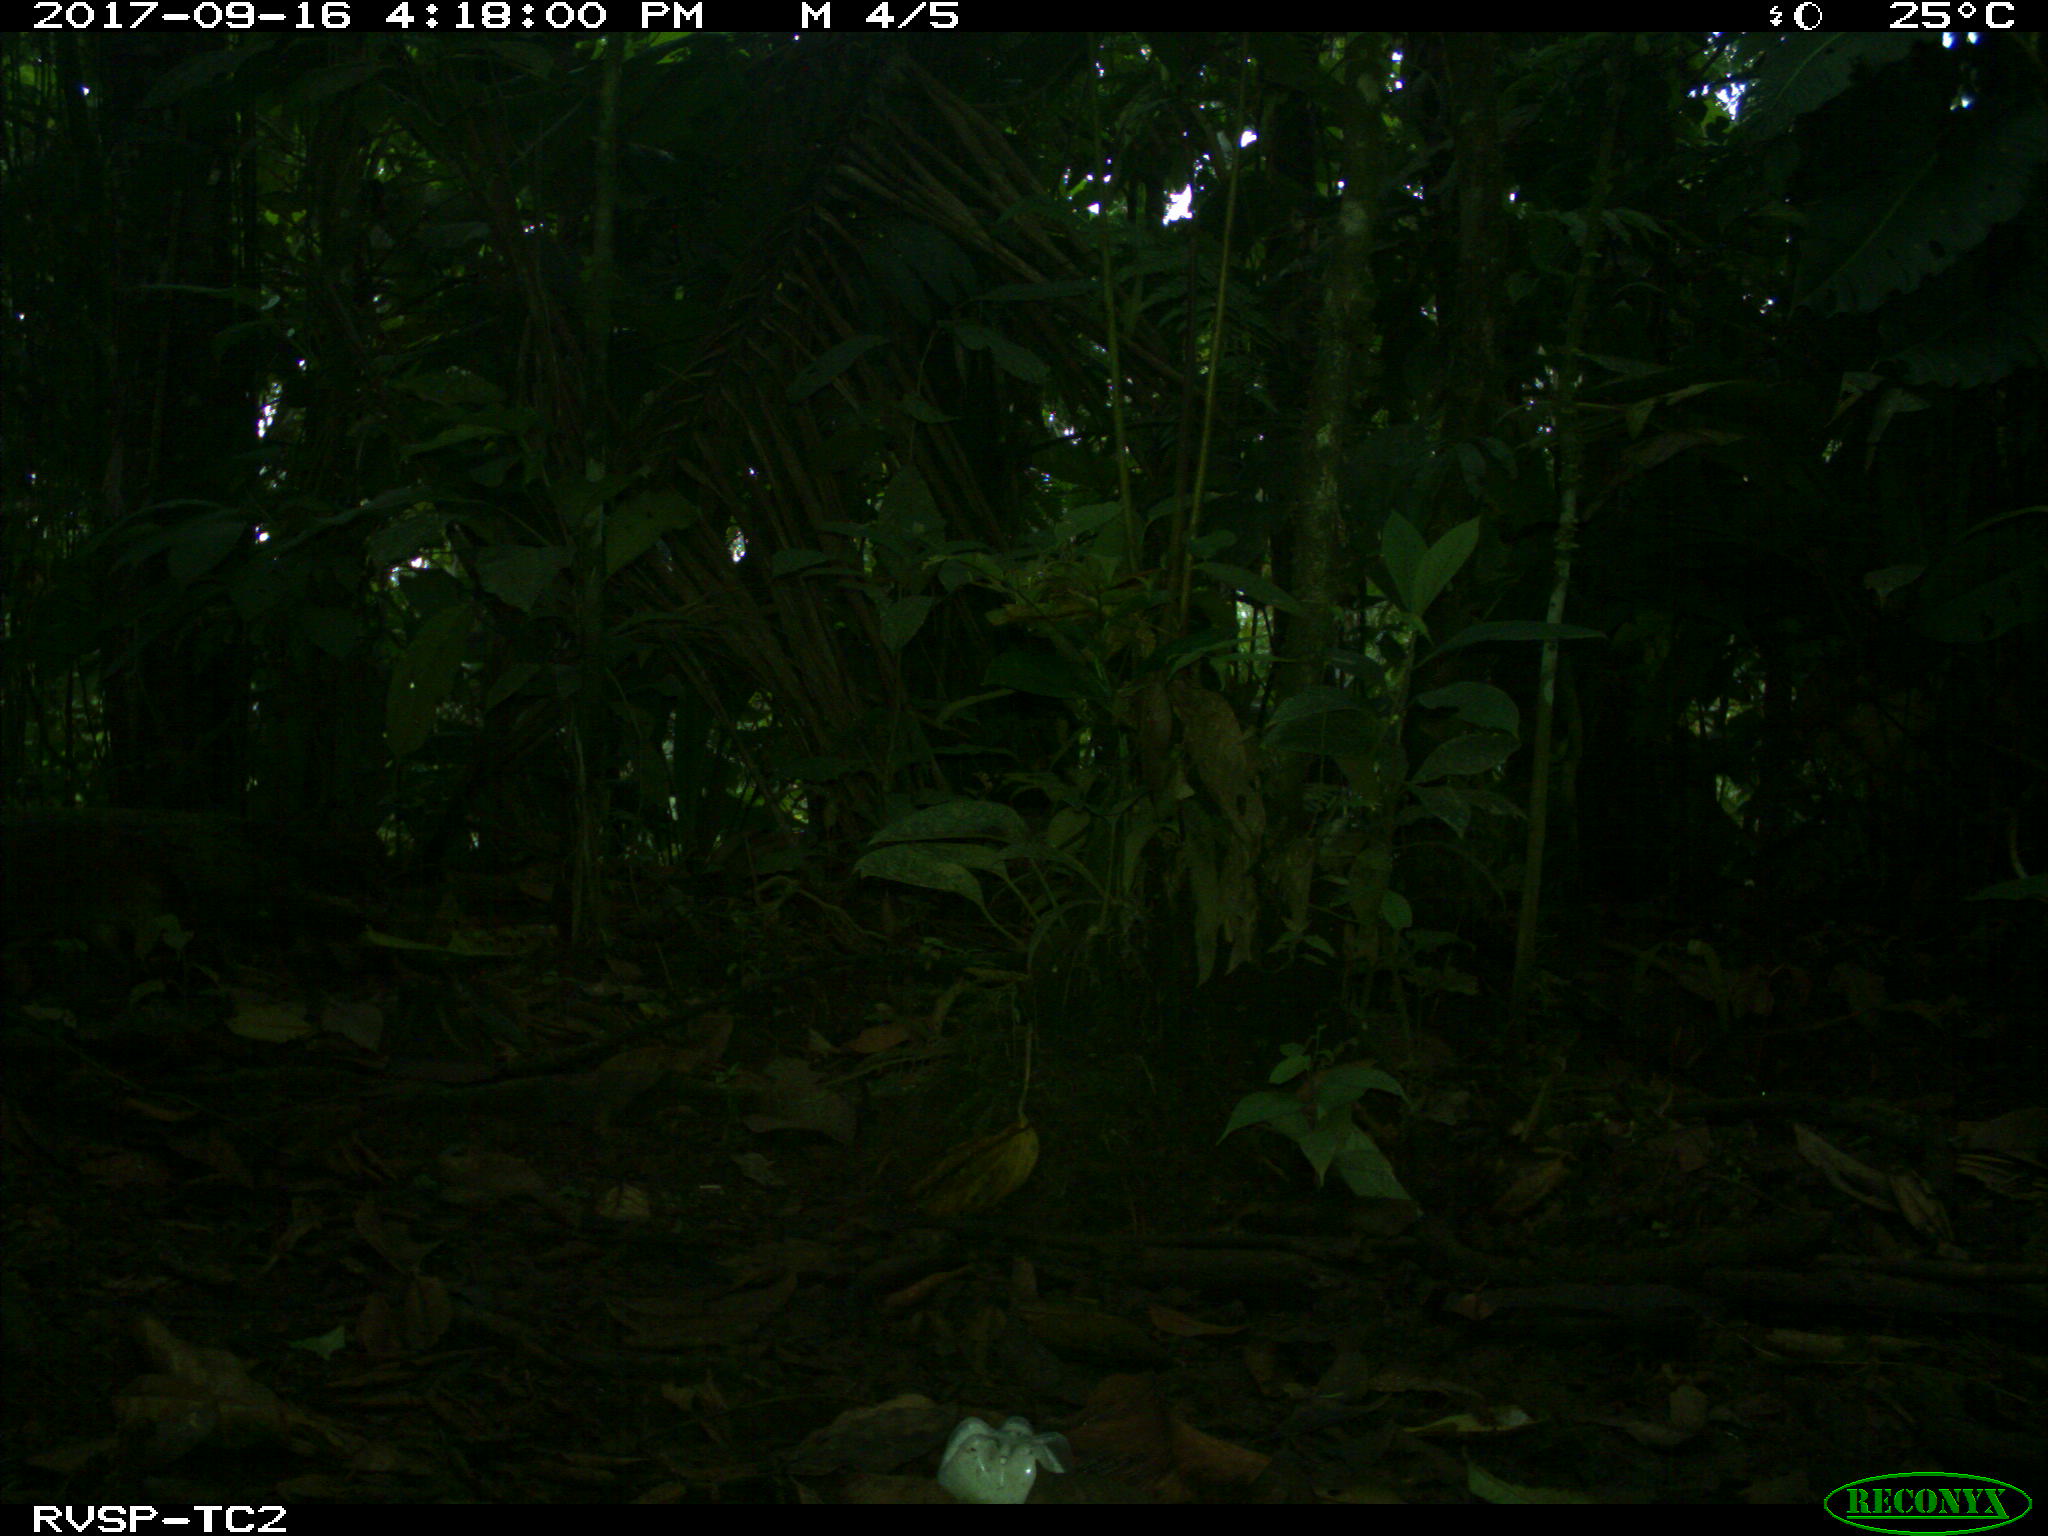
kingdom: Animalia
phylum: Chordata
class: Mammalia
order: Rodentia
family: Dasyproctidae
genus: Dasyprocta
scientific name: Dasyprocta punctata
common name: Central american agouti
